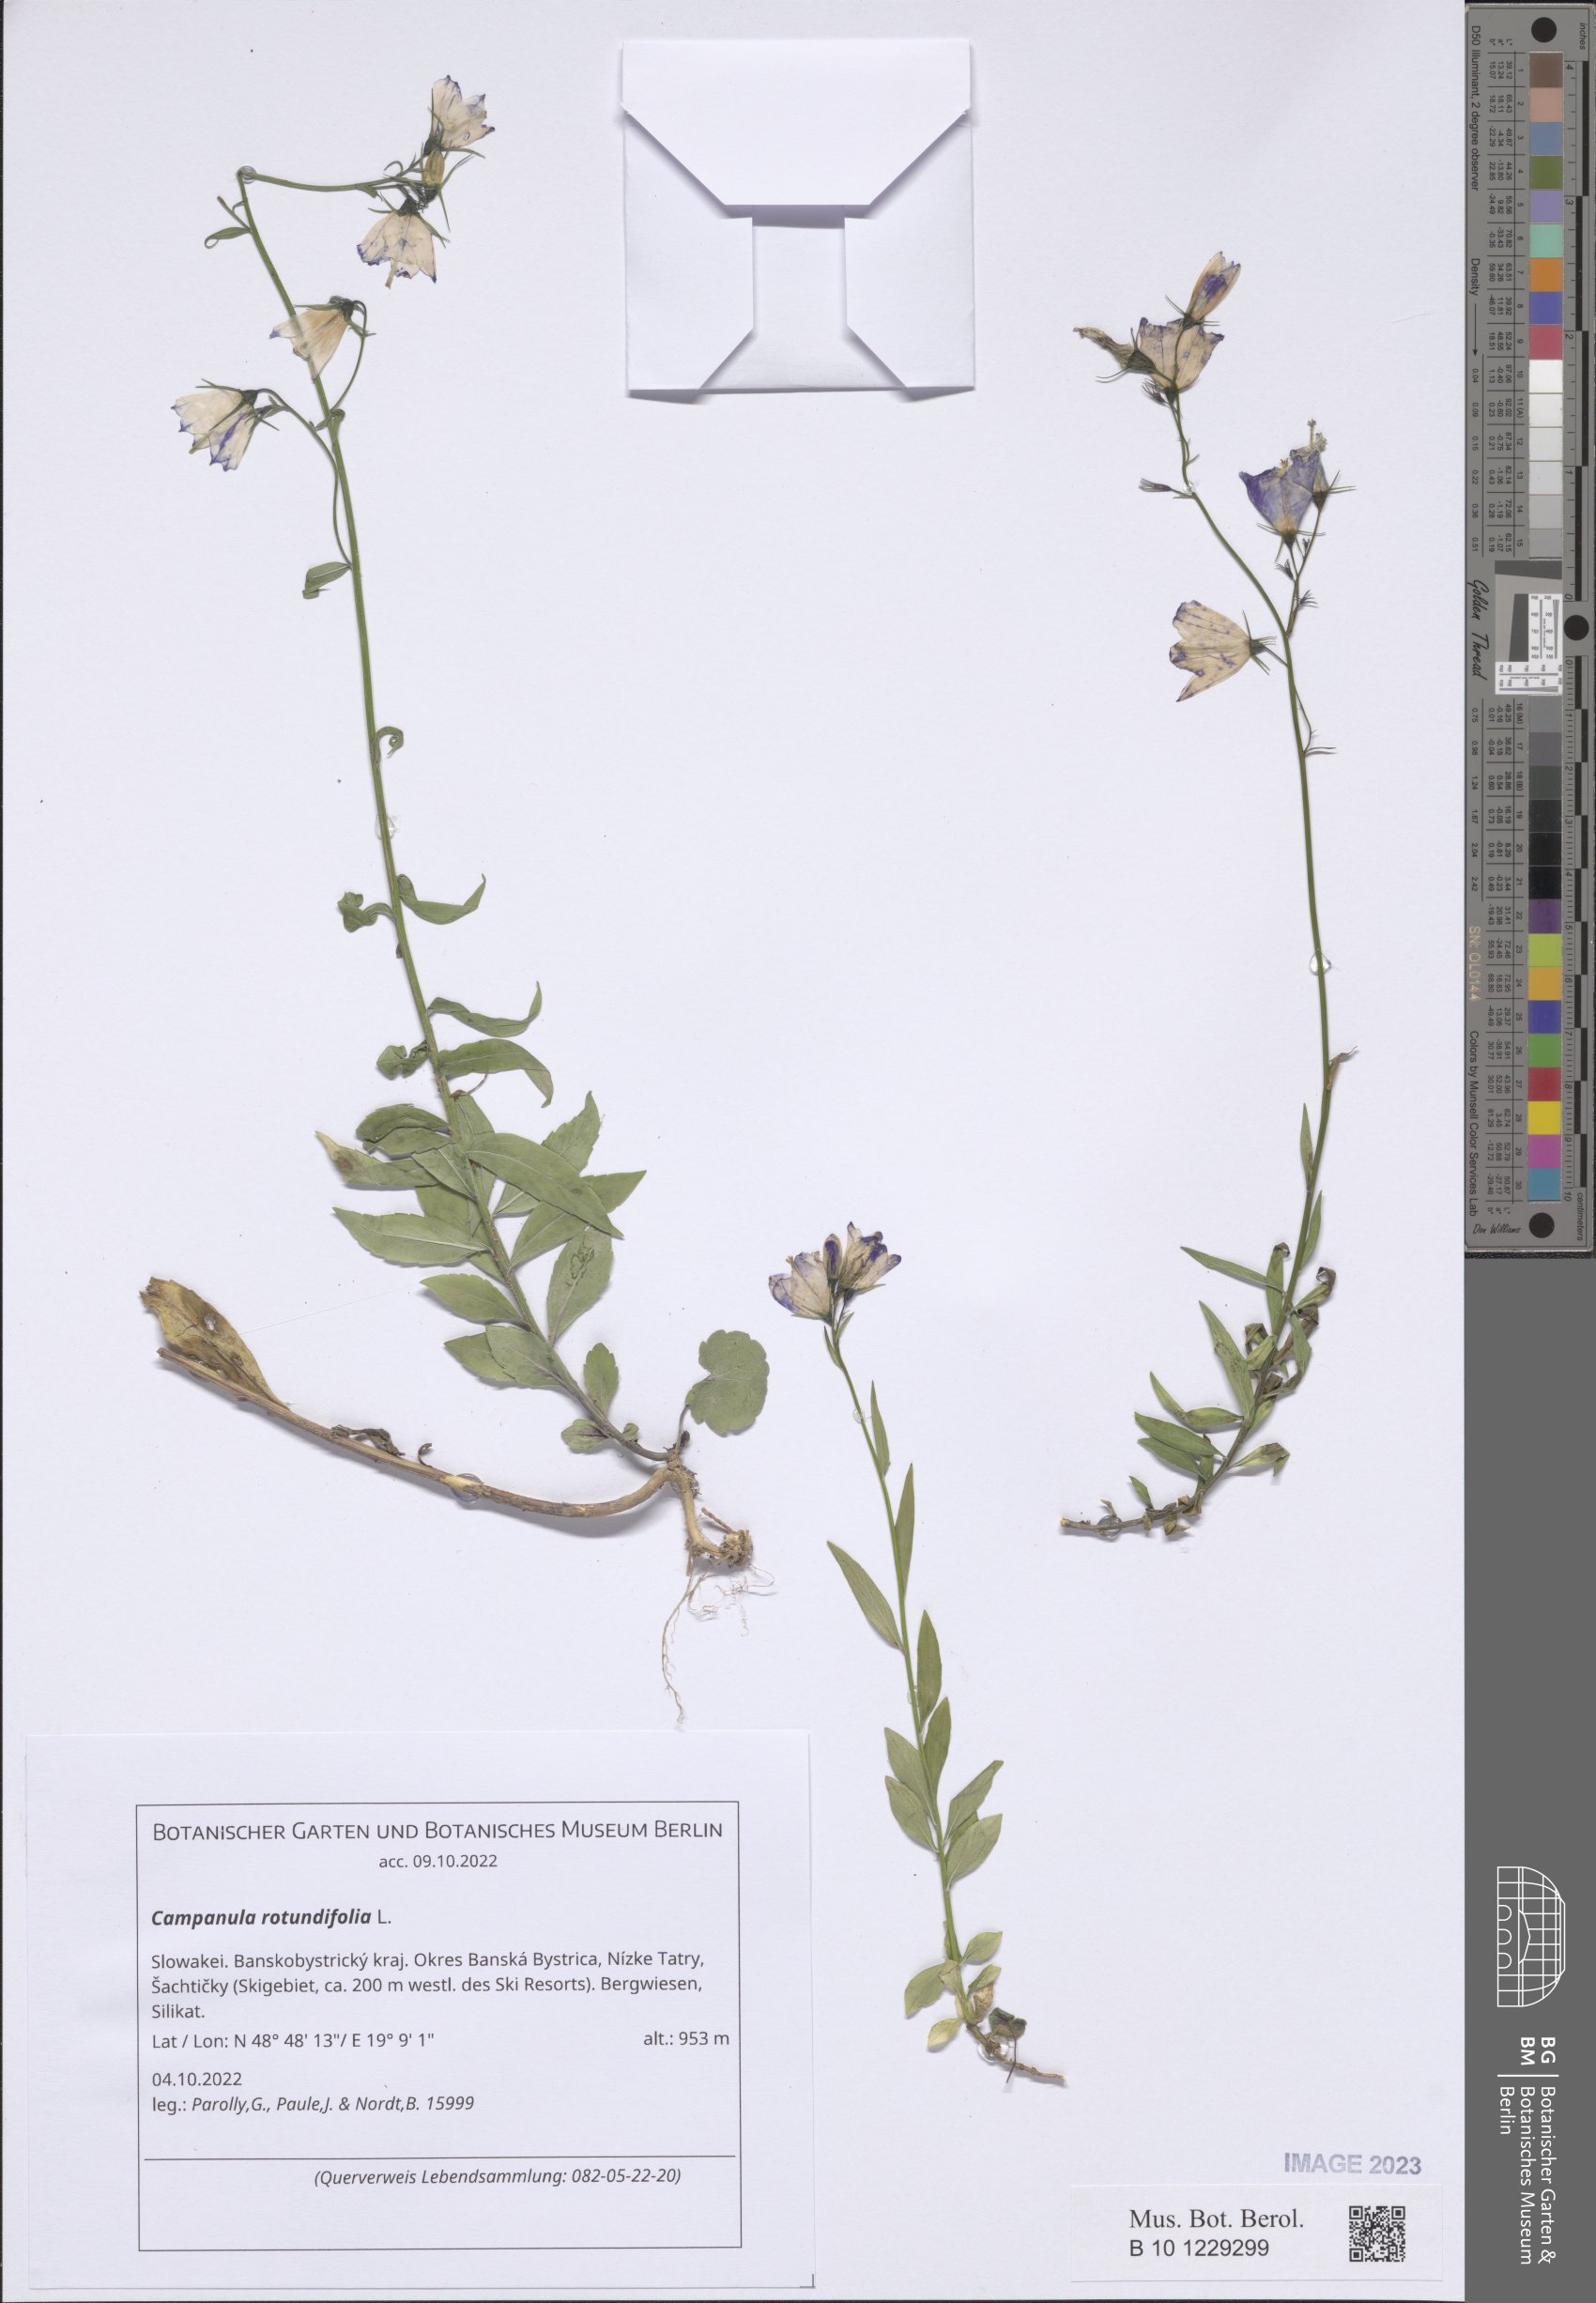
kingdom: Plantae
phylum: Tracheophyta
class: Magnoliopsida
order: Asterales
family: Campanulaceae
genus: Campanula
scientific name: Campanula rotundifolia
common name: Harebell
